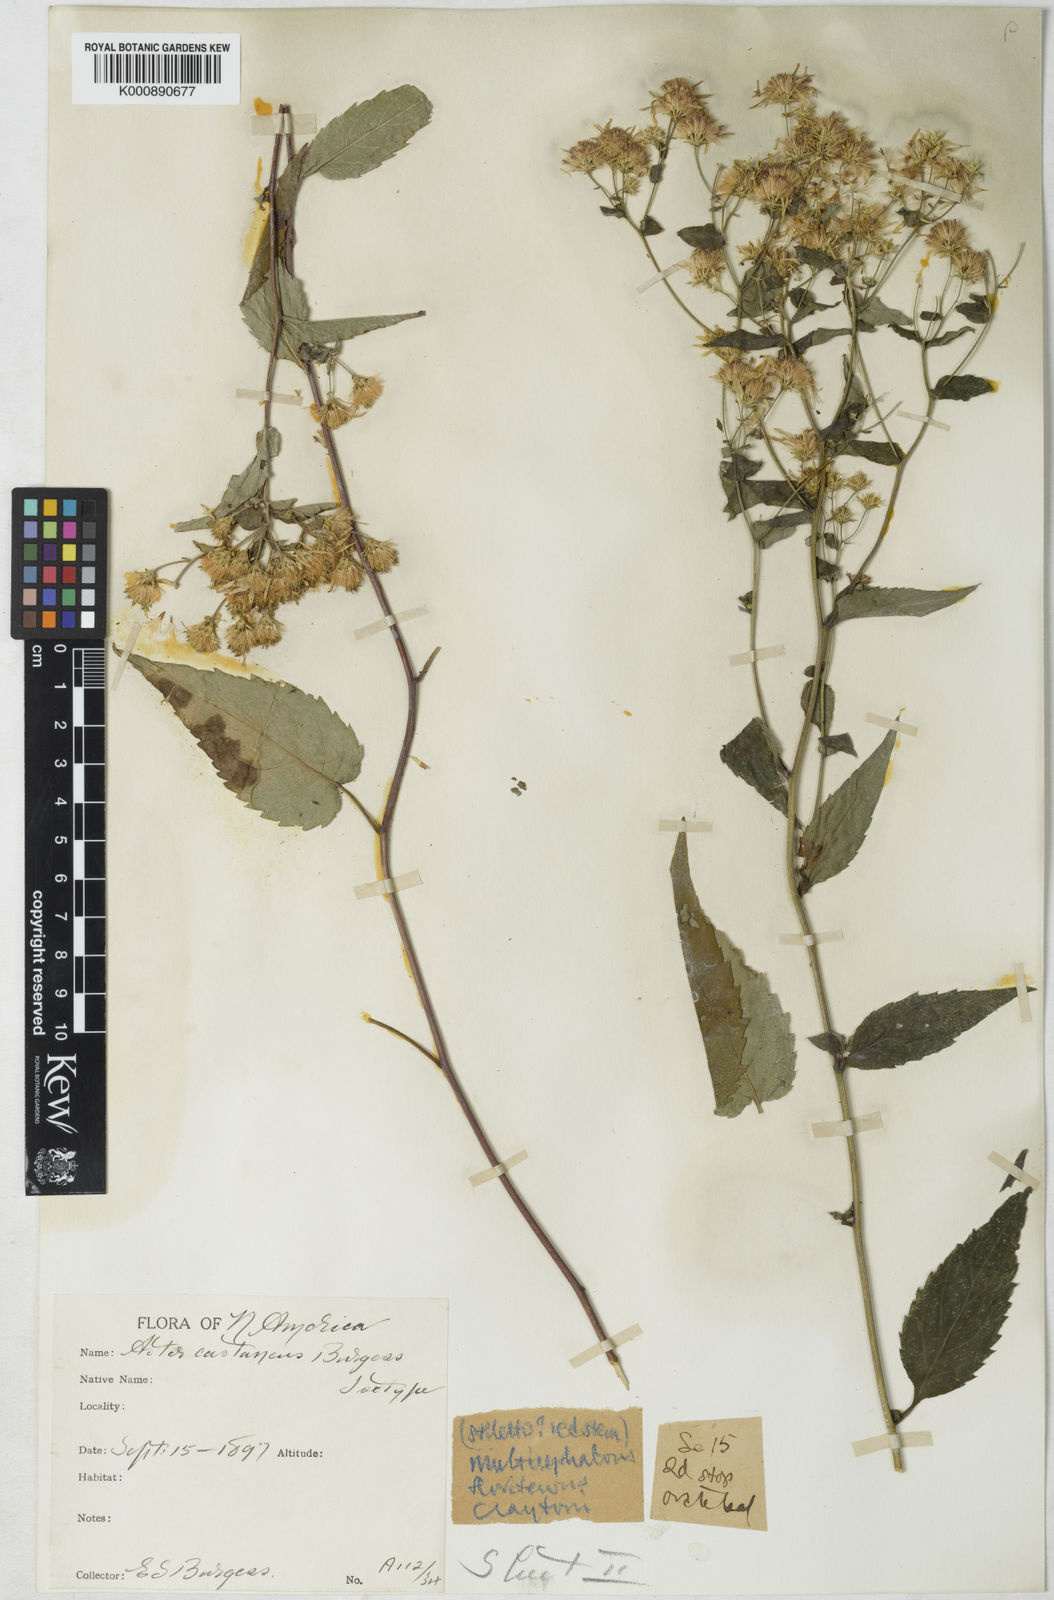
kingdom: Plantae
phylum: Tracheophyta
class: Magnoliopsida
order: Asterales
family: Asteraceae
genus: Eurybia
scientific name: Eurybia divaricata
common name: White wood aster
